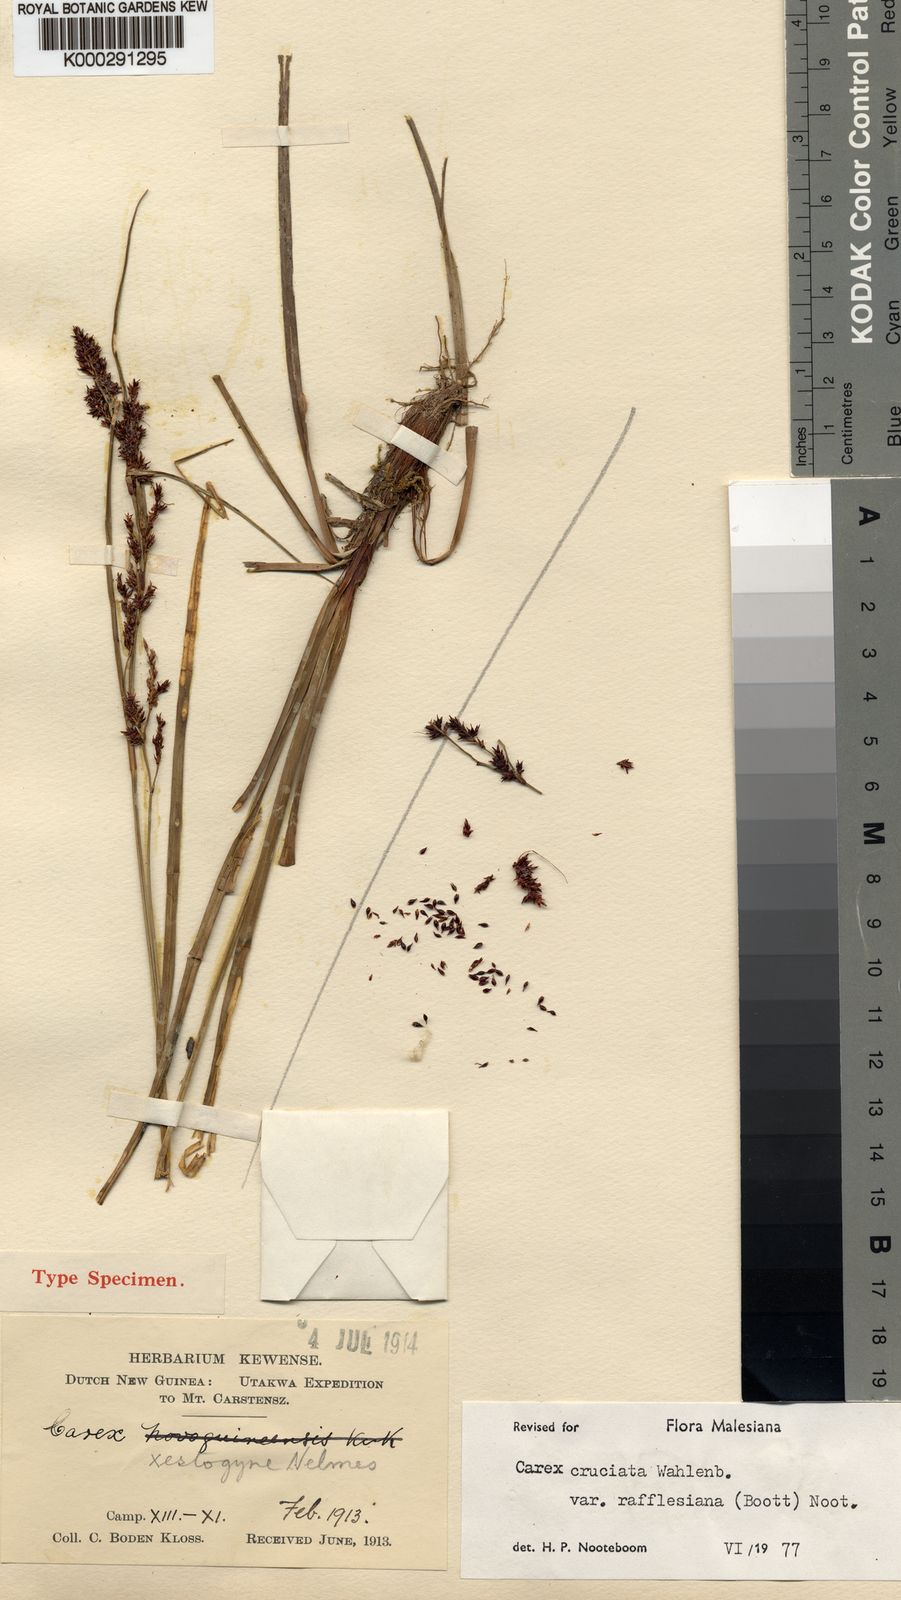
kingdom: Plantae
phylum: Tracheophyta
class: Liliopsida
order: Poales
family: Cyperaceae
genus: Carex
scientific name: Carex rafflesiana
